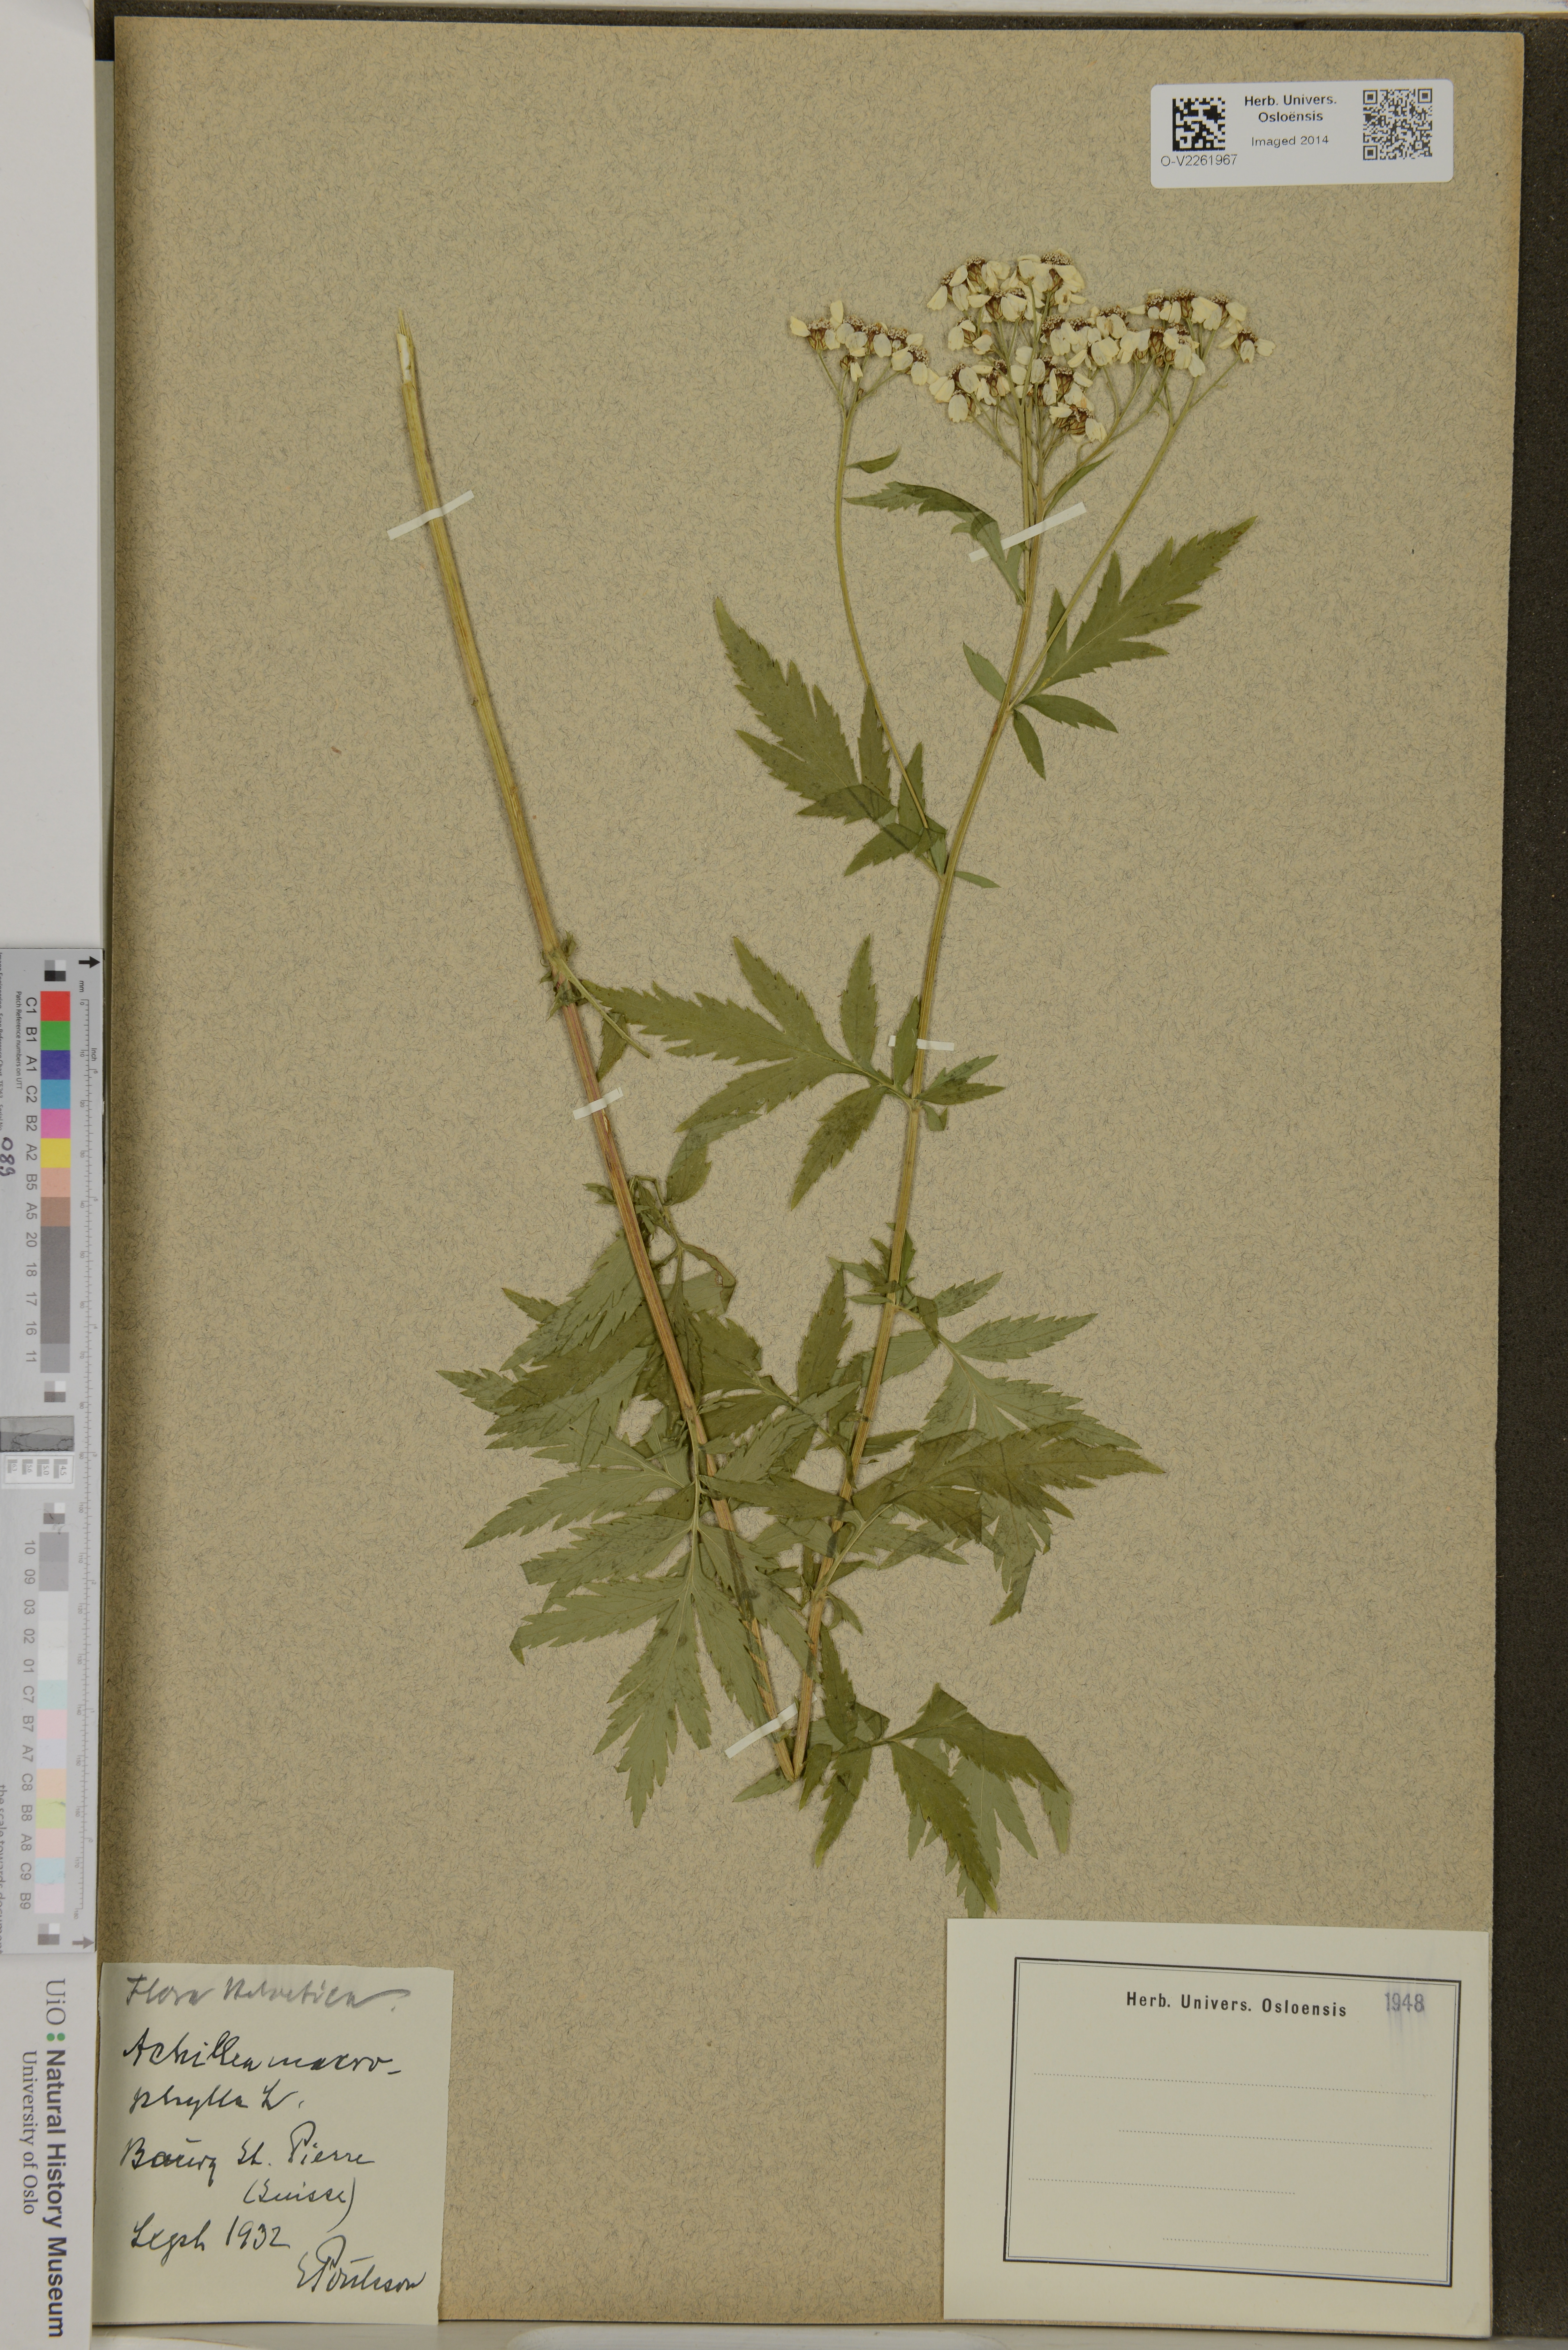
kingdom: Plantae
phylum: Tracheophyta
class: Magnoliopsida
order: Asterales
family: Asteraceae
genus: Achillea
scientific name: Achillea macrophylla
